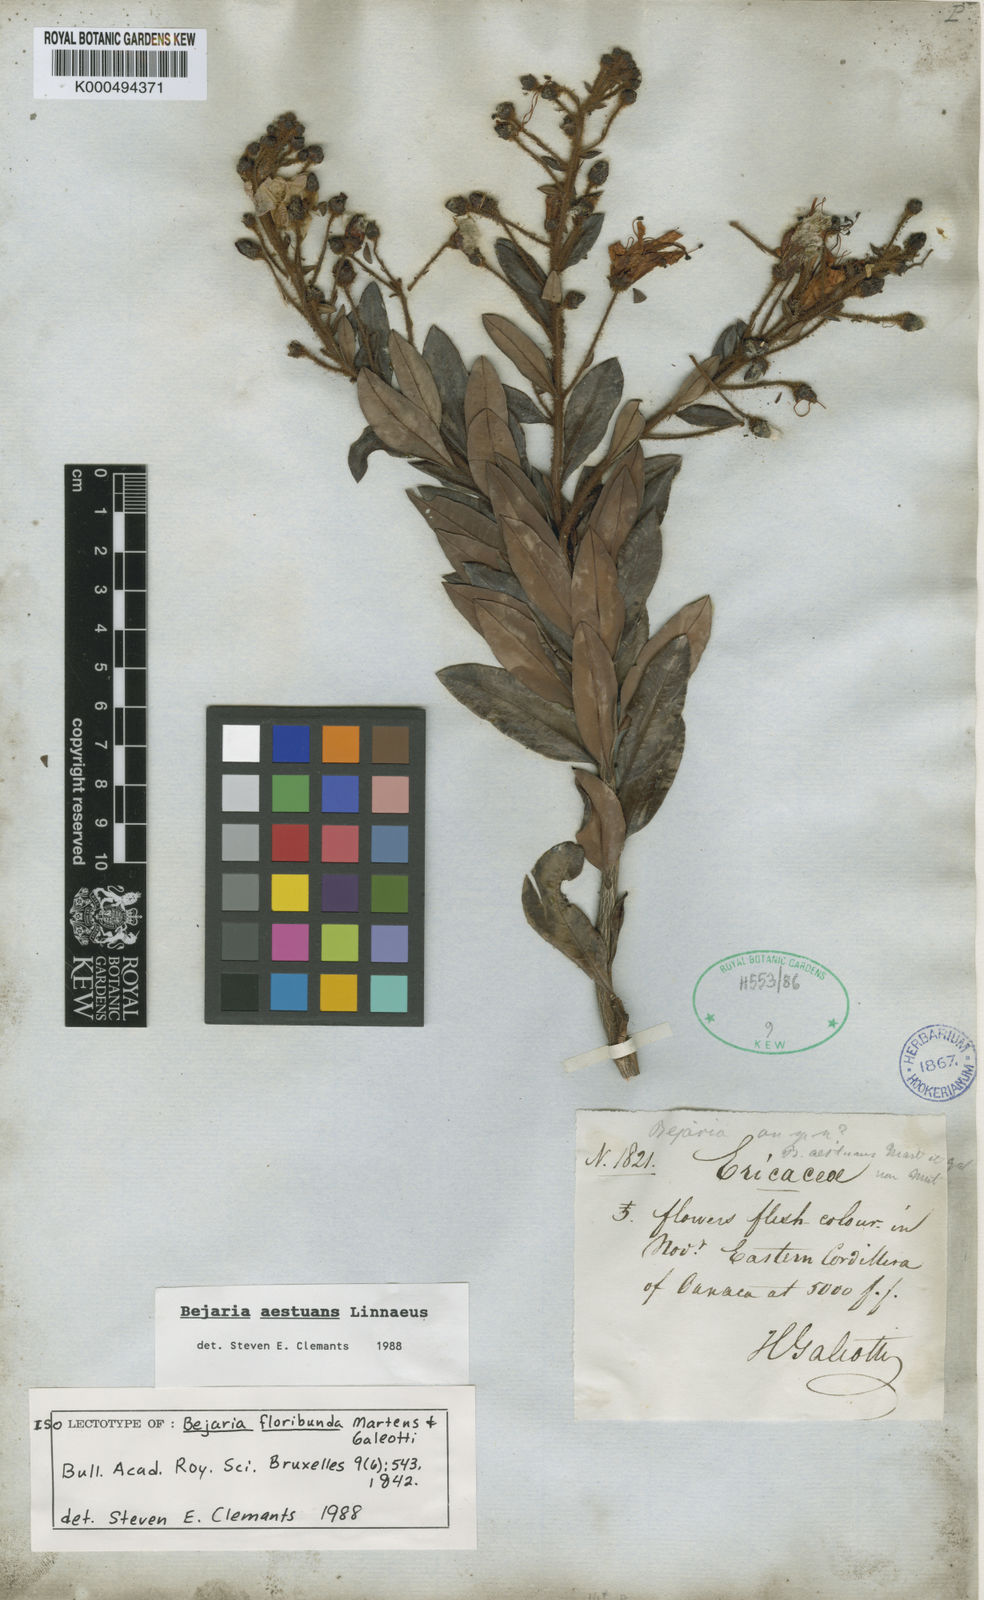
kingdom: Plantae
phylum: Tracheophyta
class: Magnoliopsida
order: Ericales
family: Ericaceae
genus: Bejaria
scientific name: Bejaria
